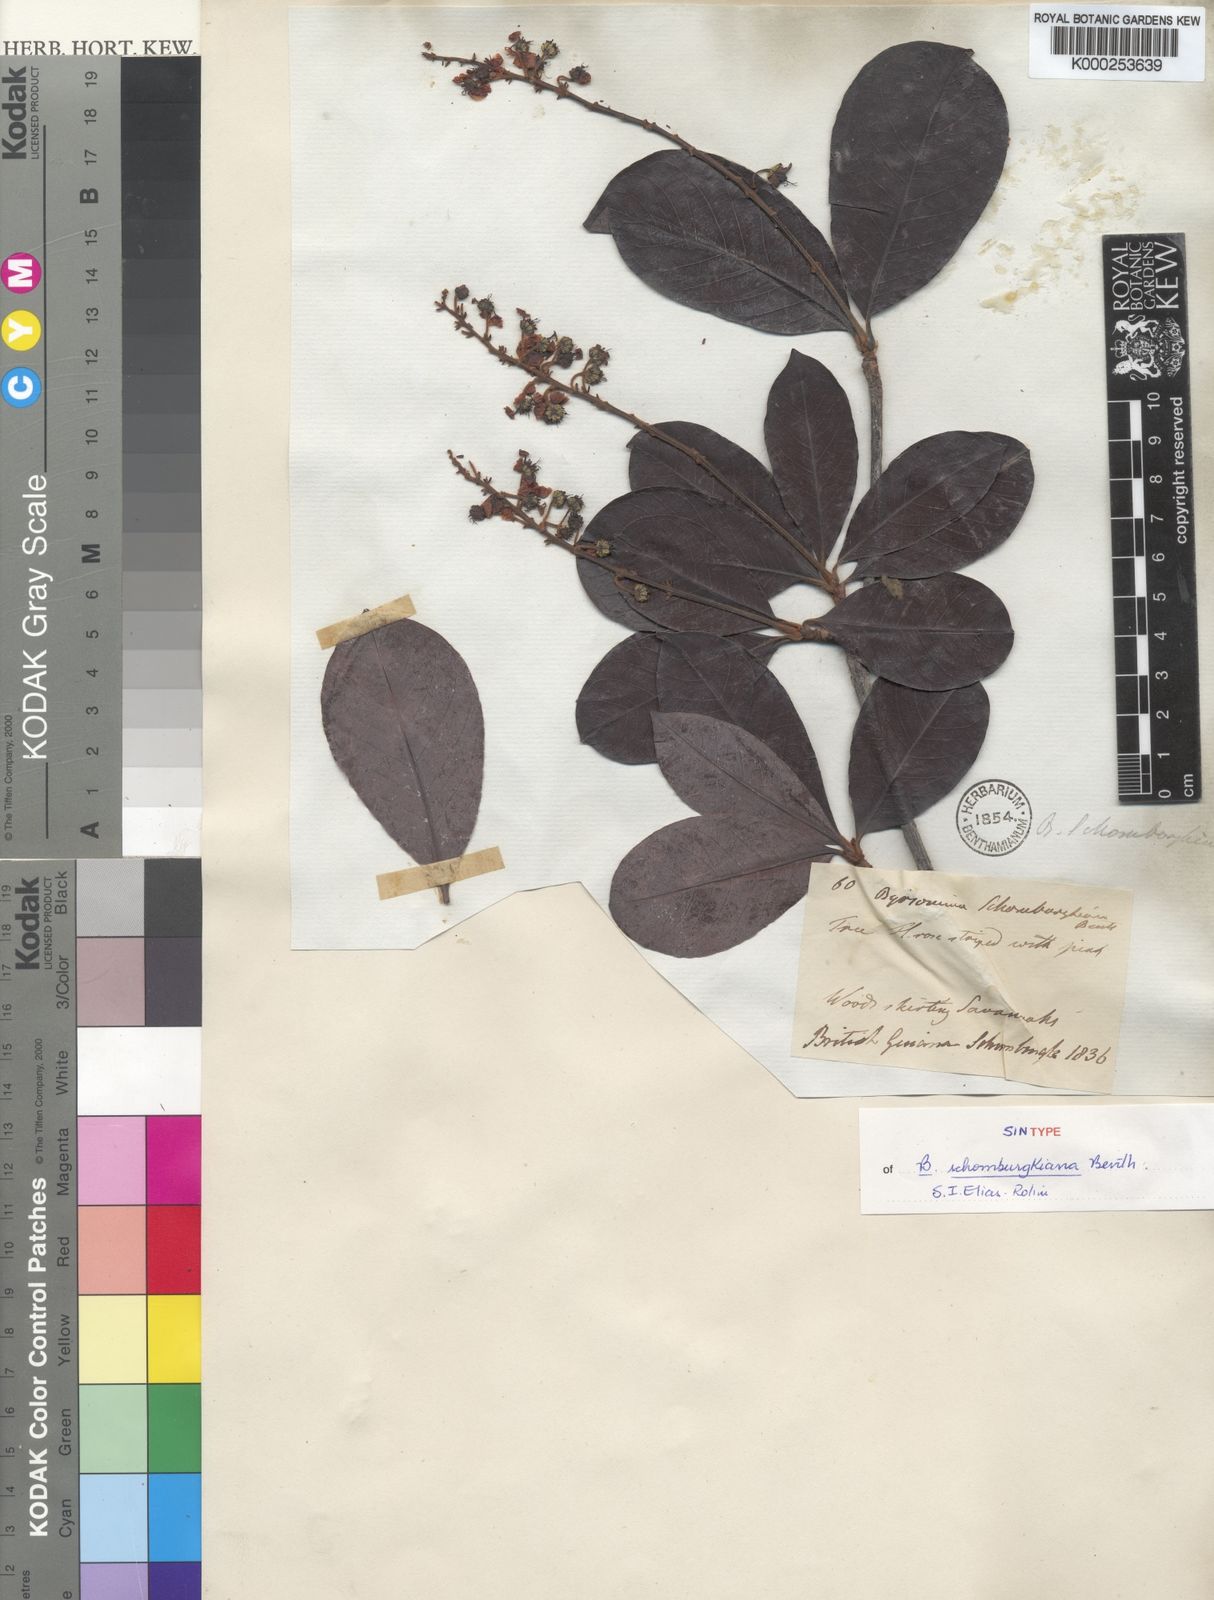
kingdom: Plantae
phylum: Tracheophyta
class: Magnoliopsida
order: Malpighiales
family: Malpighiaceae
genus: Byrsonima
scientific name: Byrsonima schomburgkiana
